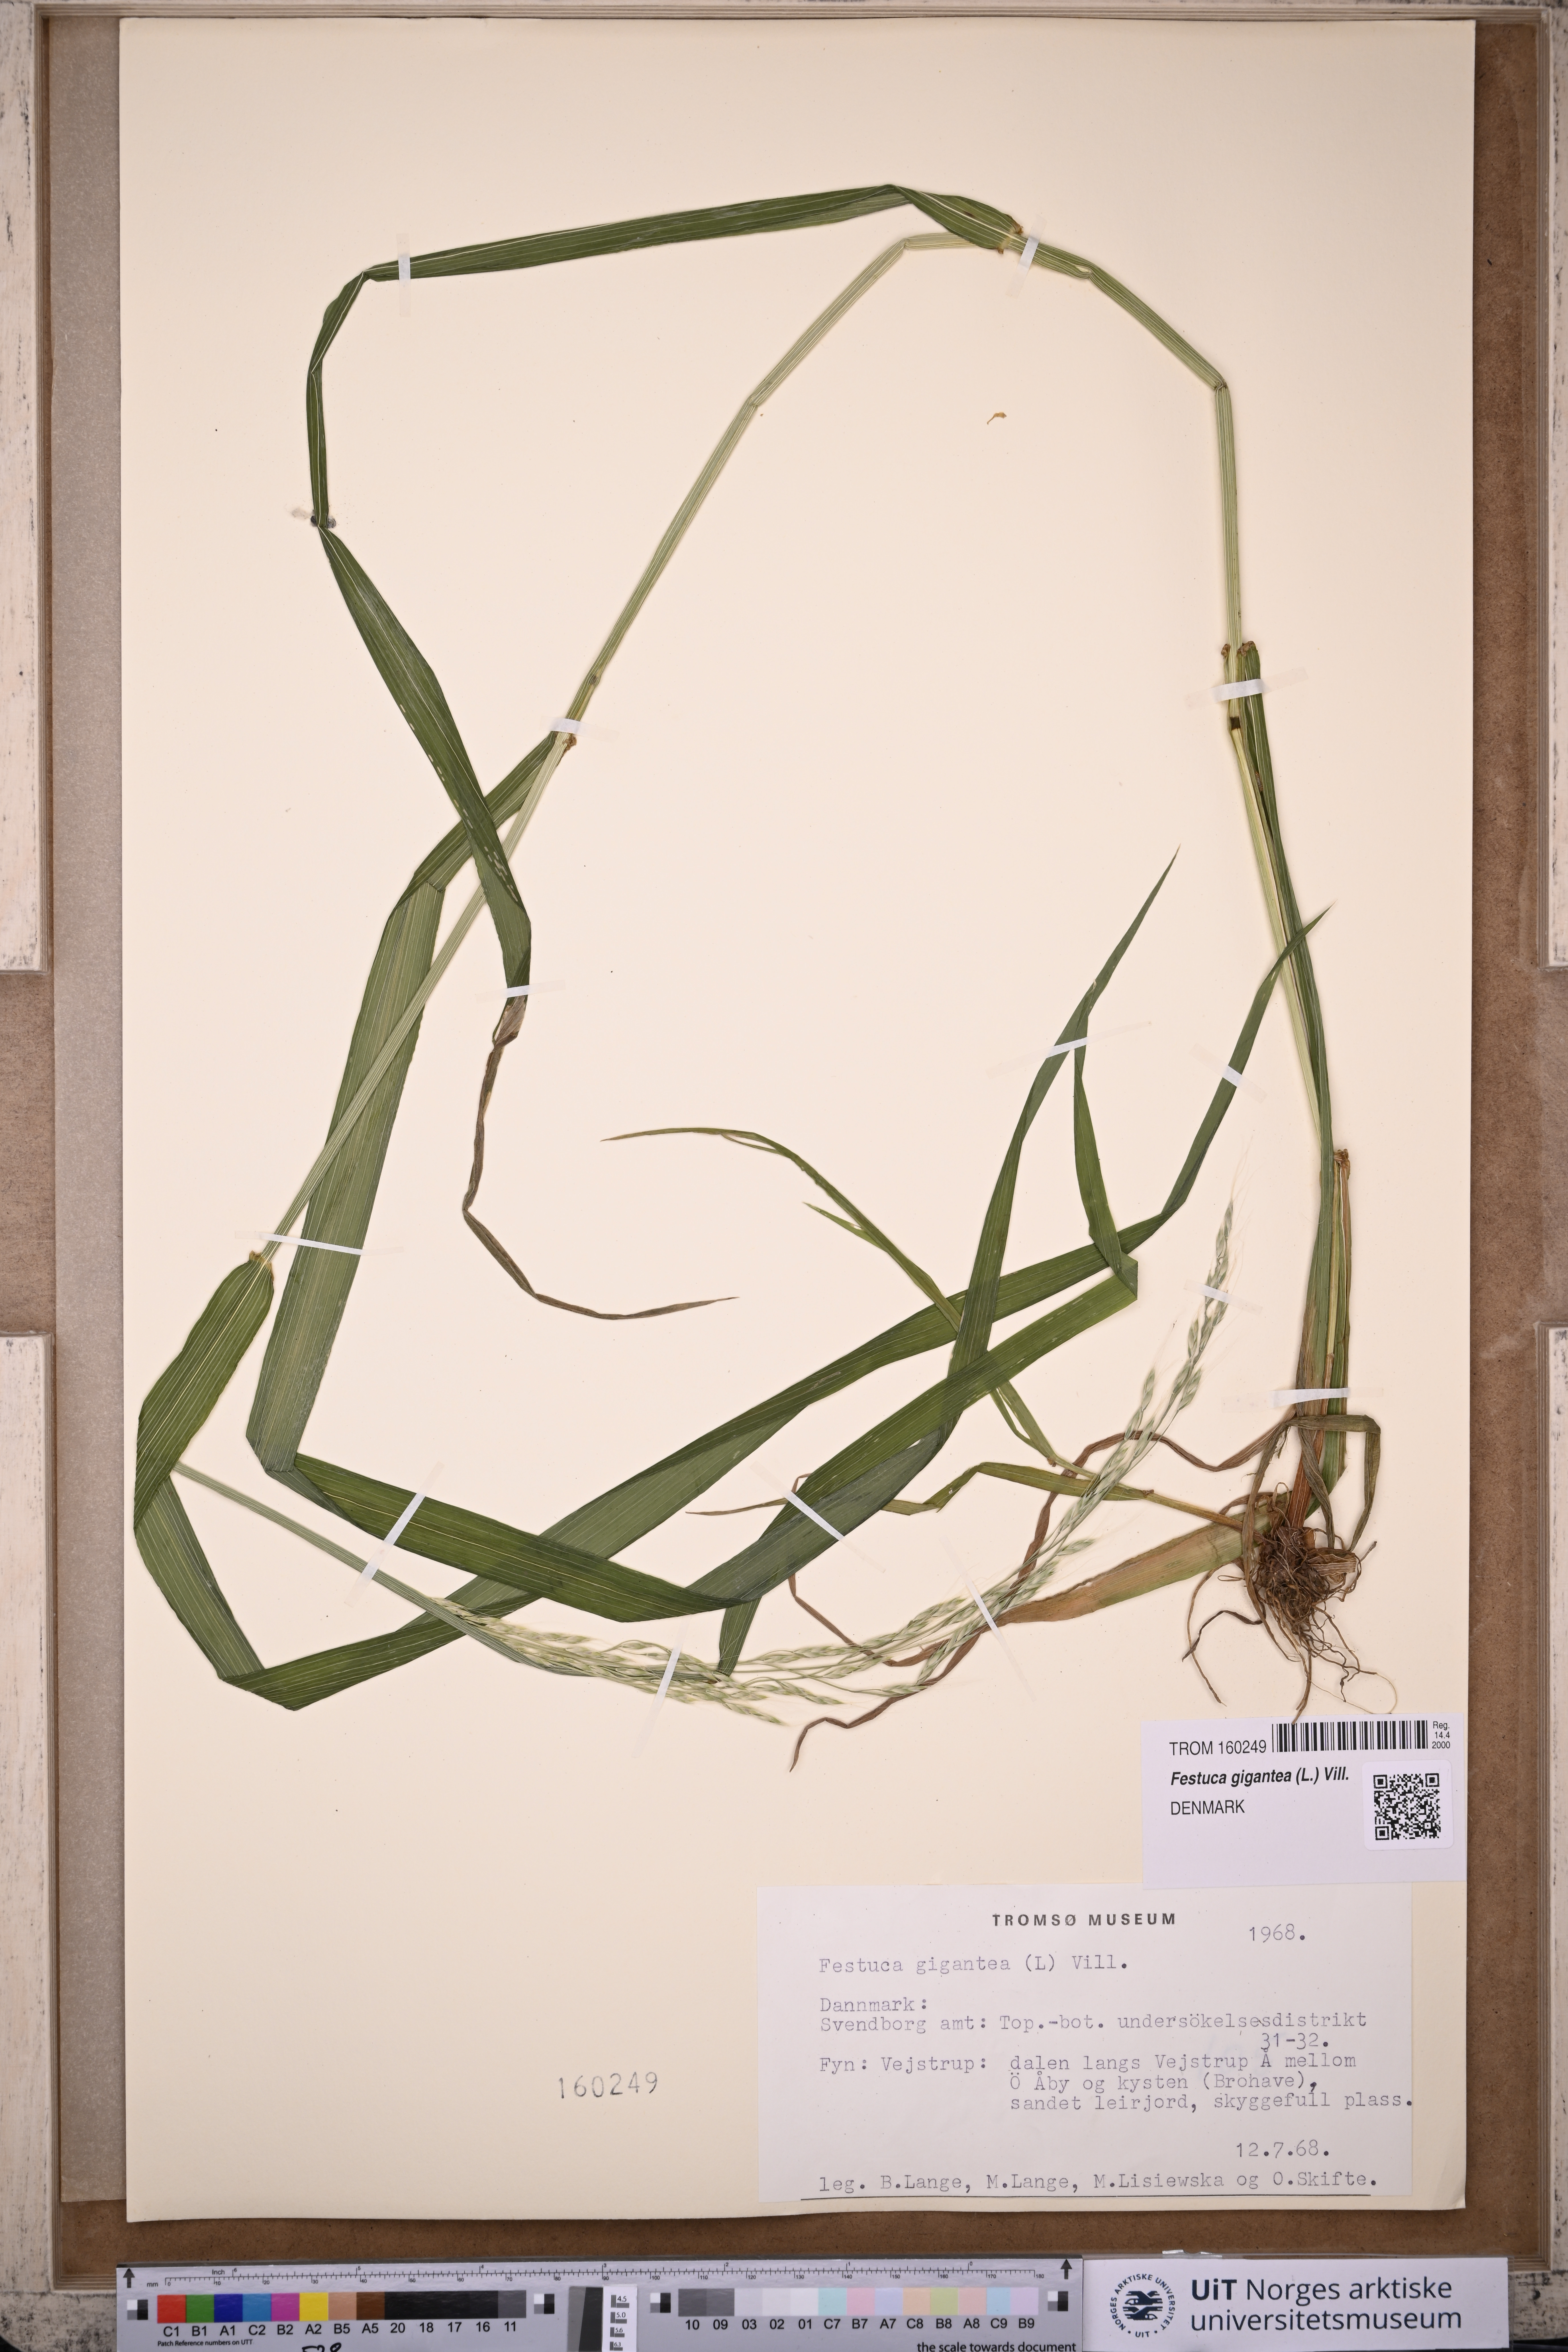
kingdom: Plantae
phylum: Tracheophyta
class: Liliopsida
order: Poales
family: Poaceae
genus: Lolium
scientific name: Lolium giganteum
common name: Giant fescue
